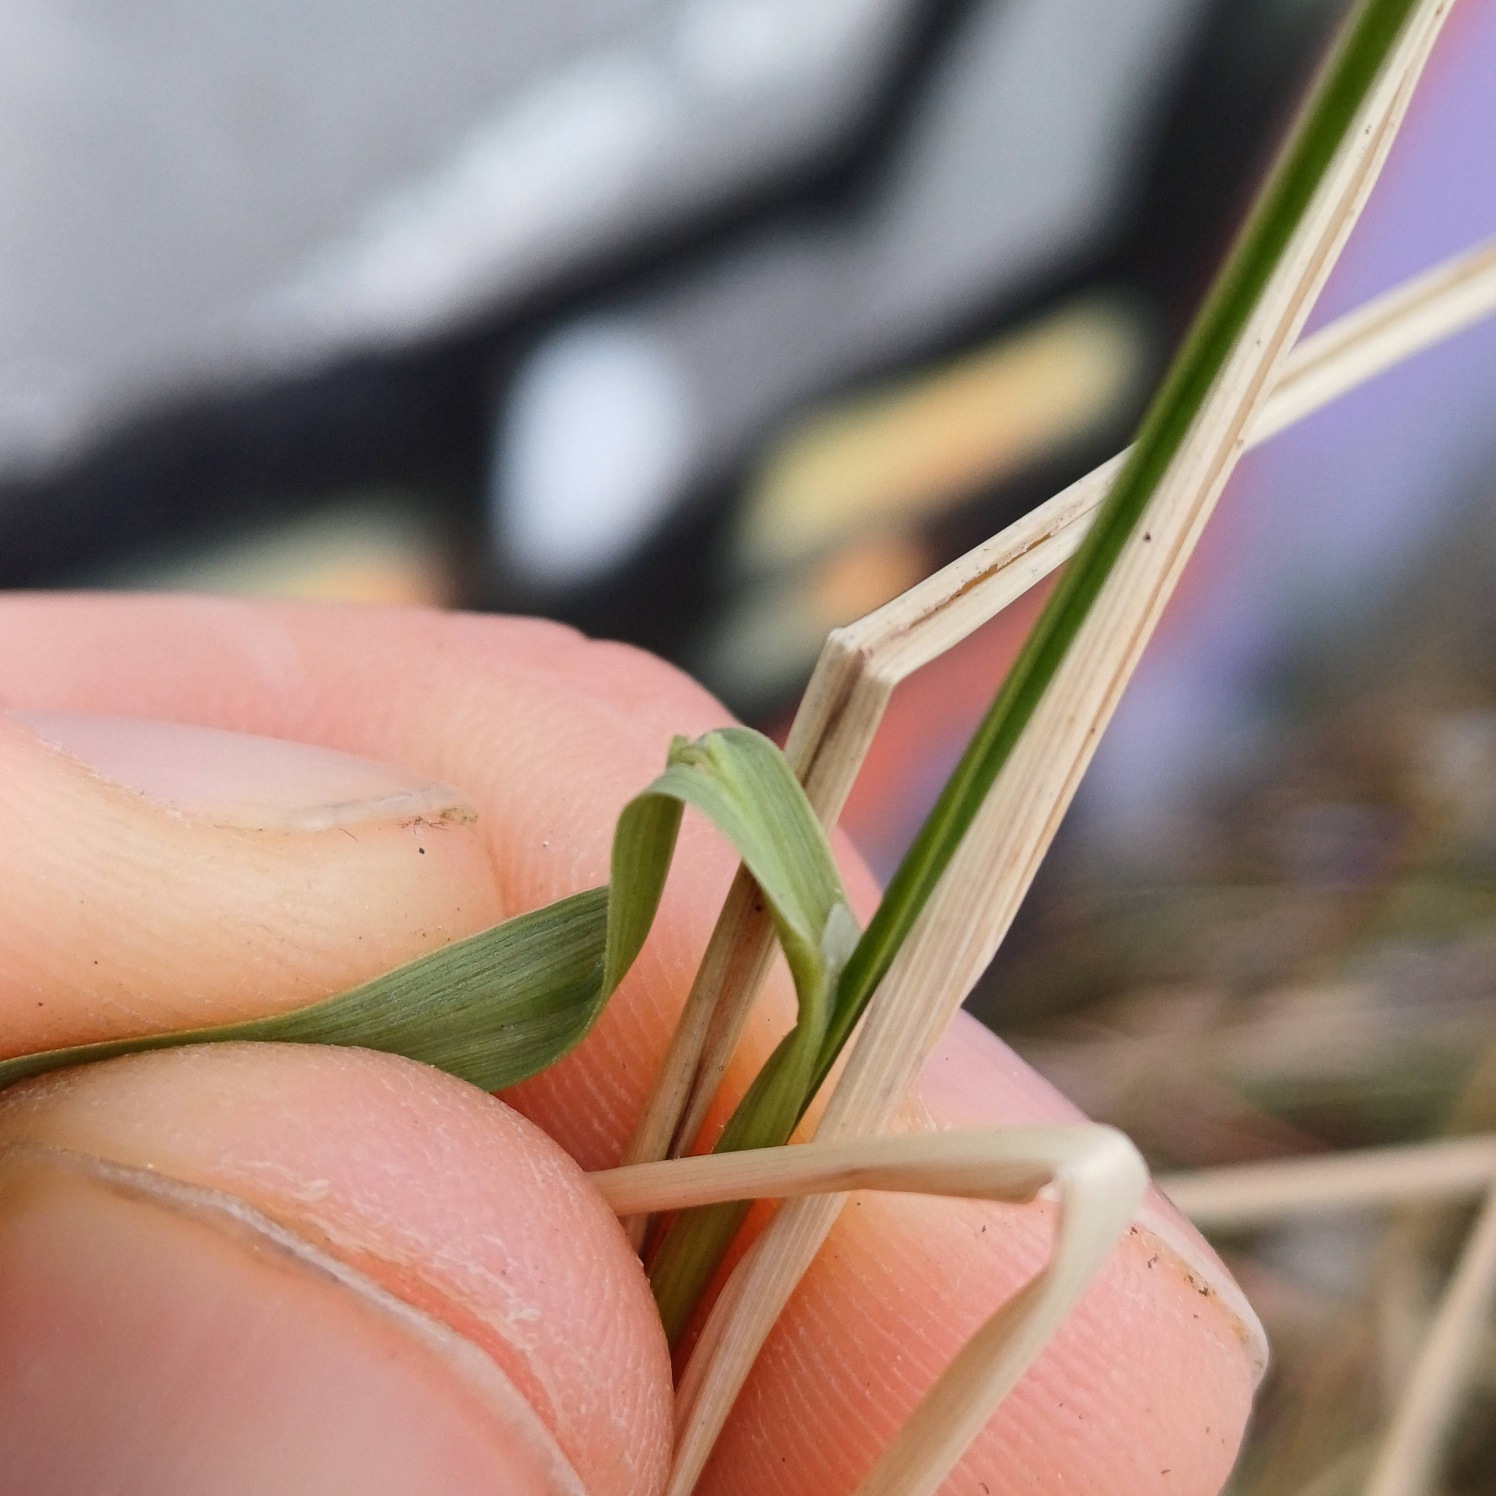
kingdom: Plantae
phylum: Tracheophyta
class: Liliopsida
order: Poales
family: Poaceae
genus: Calamagrostis
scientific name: Calamagrostis epigejos
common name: Bjerg-rørhvene
